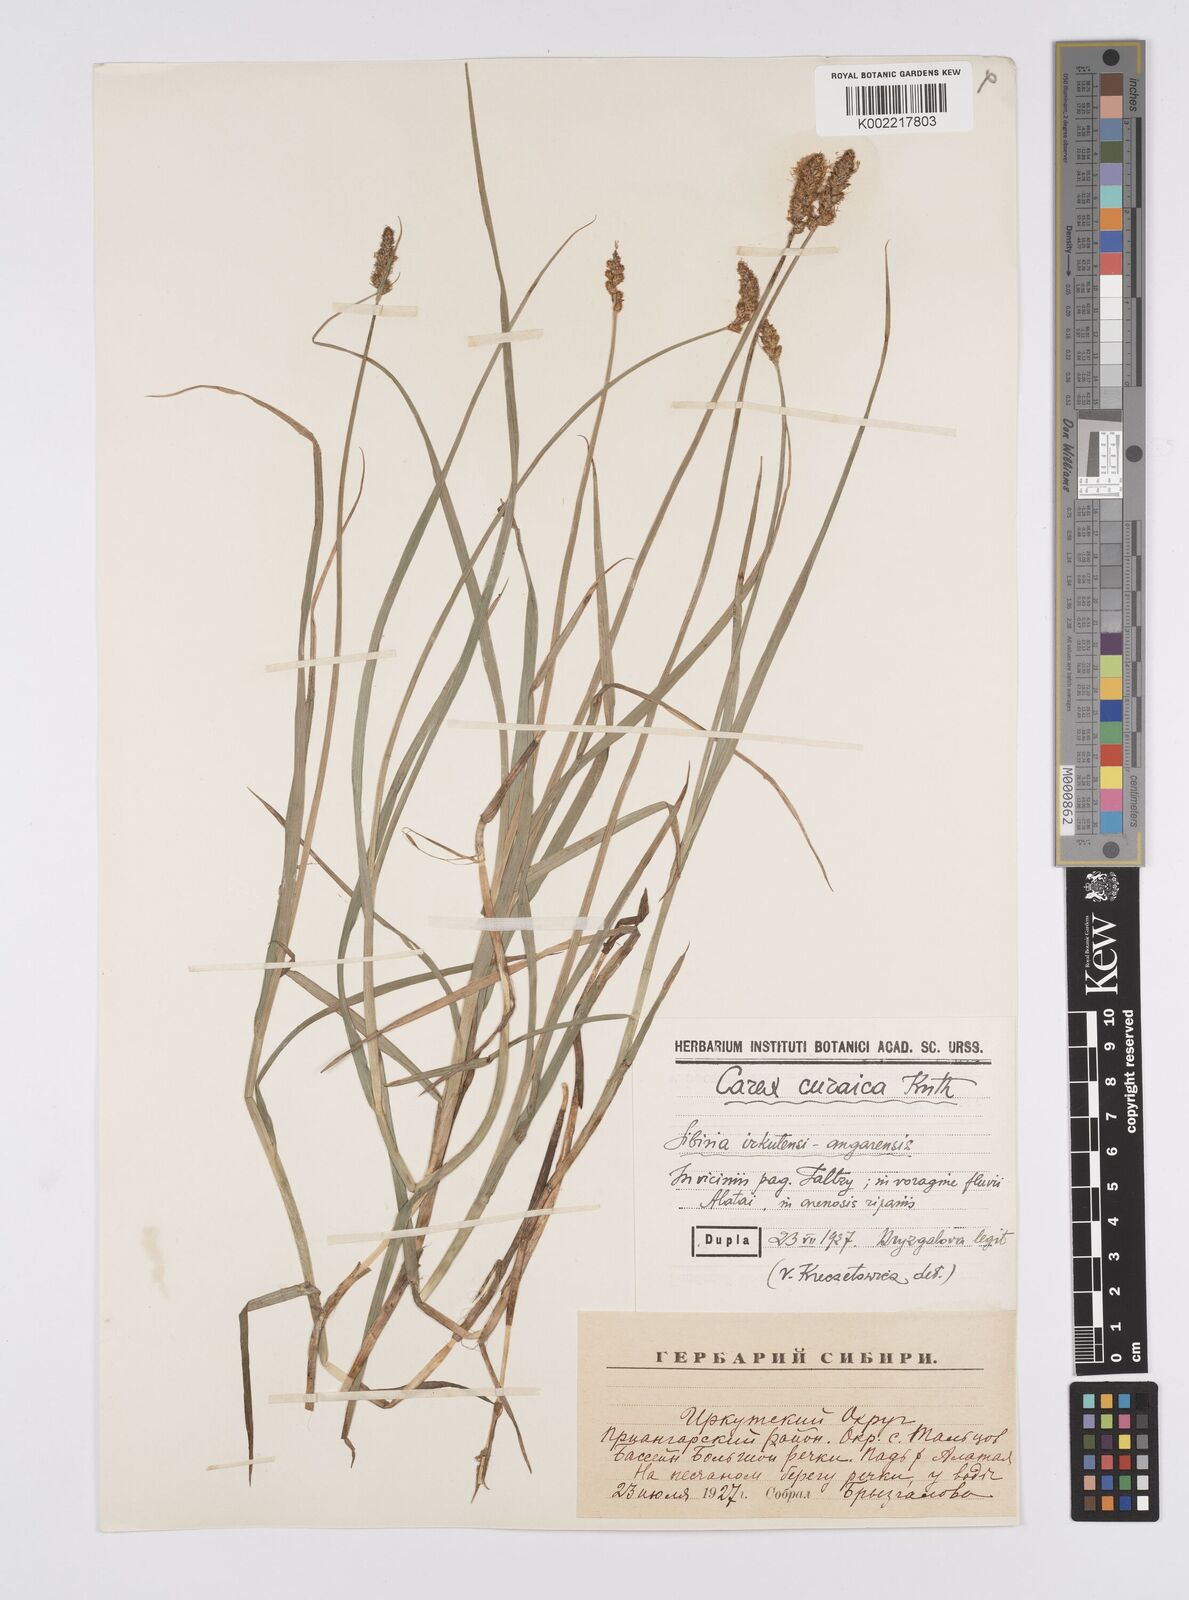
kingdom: Plantae
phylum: Tracheophyta
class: Liliopsida
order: Poales
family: Cyperaceae
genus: Carex
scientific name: Carex curaica
